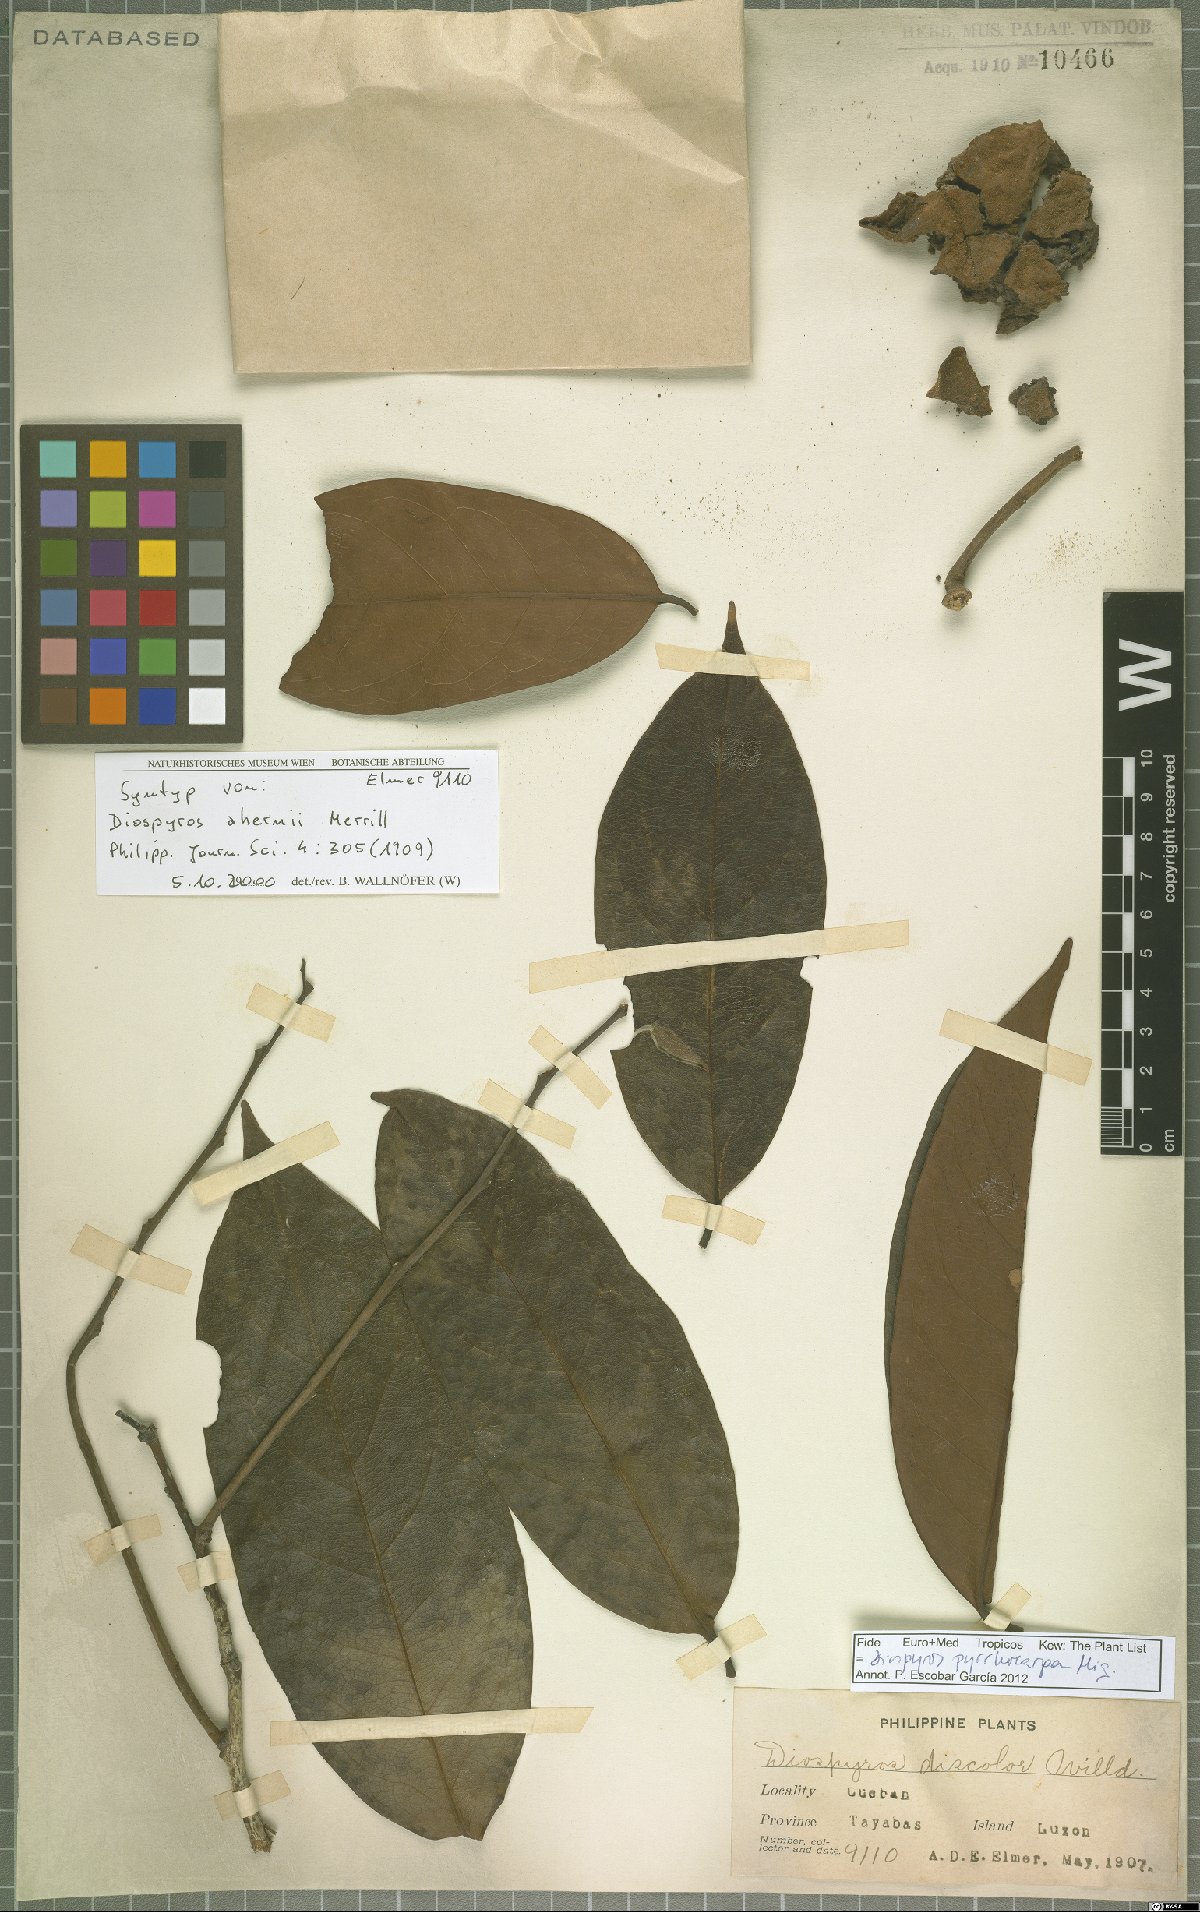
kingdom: Plantae
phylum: Tracheophyta
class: Magnoliopsida
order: Ericales
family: Ebenaceae
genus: Diospyros
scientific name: Diospyros pyrrhocarpa
